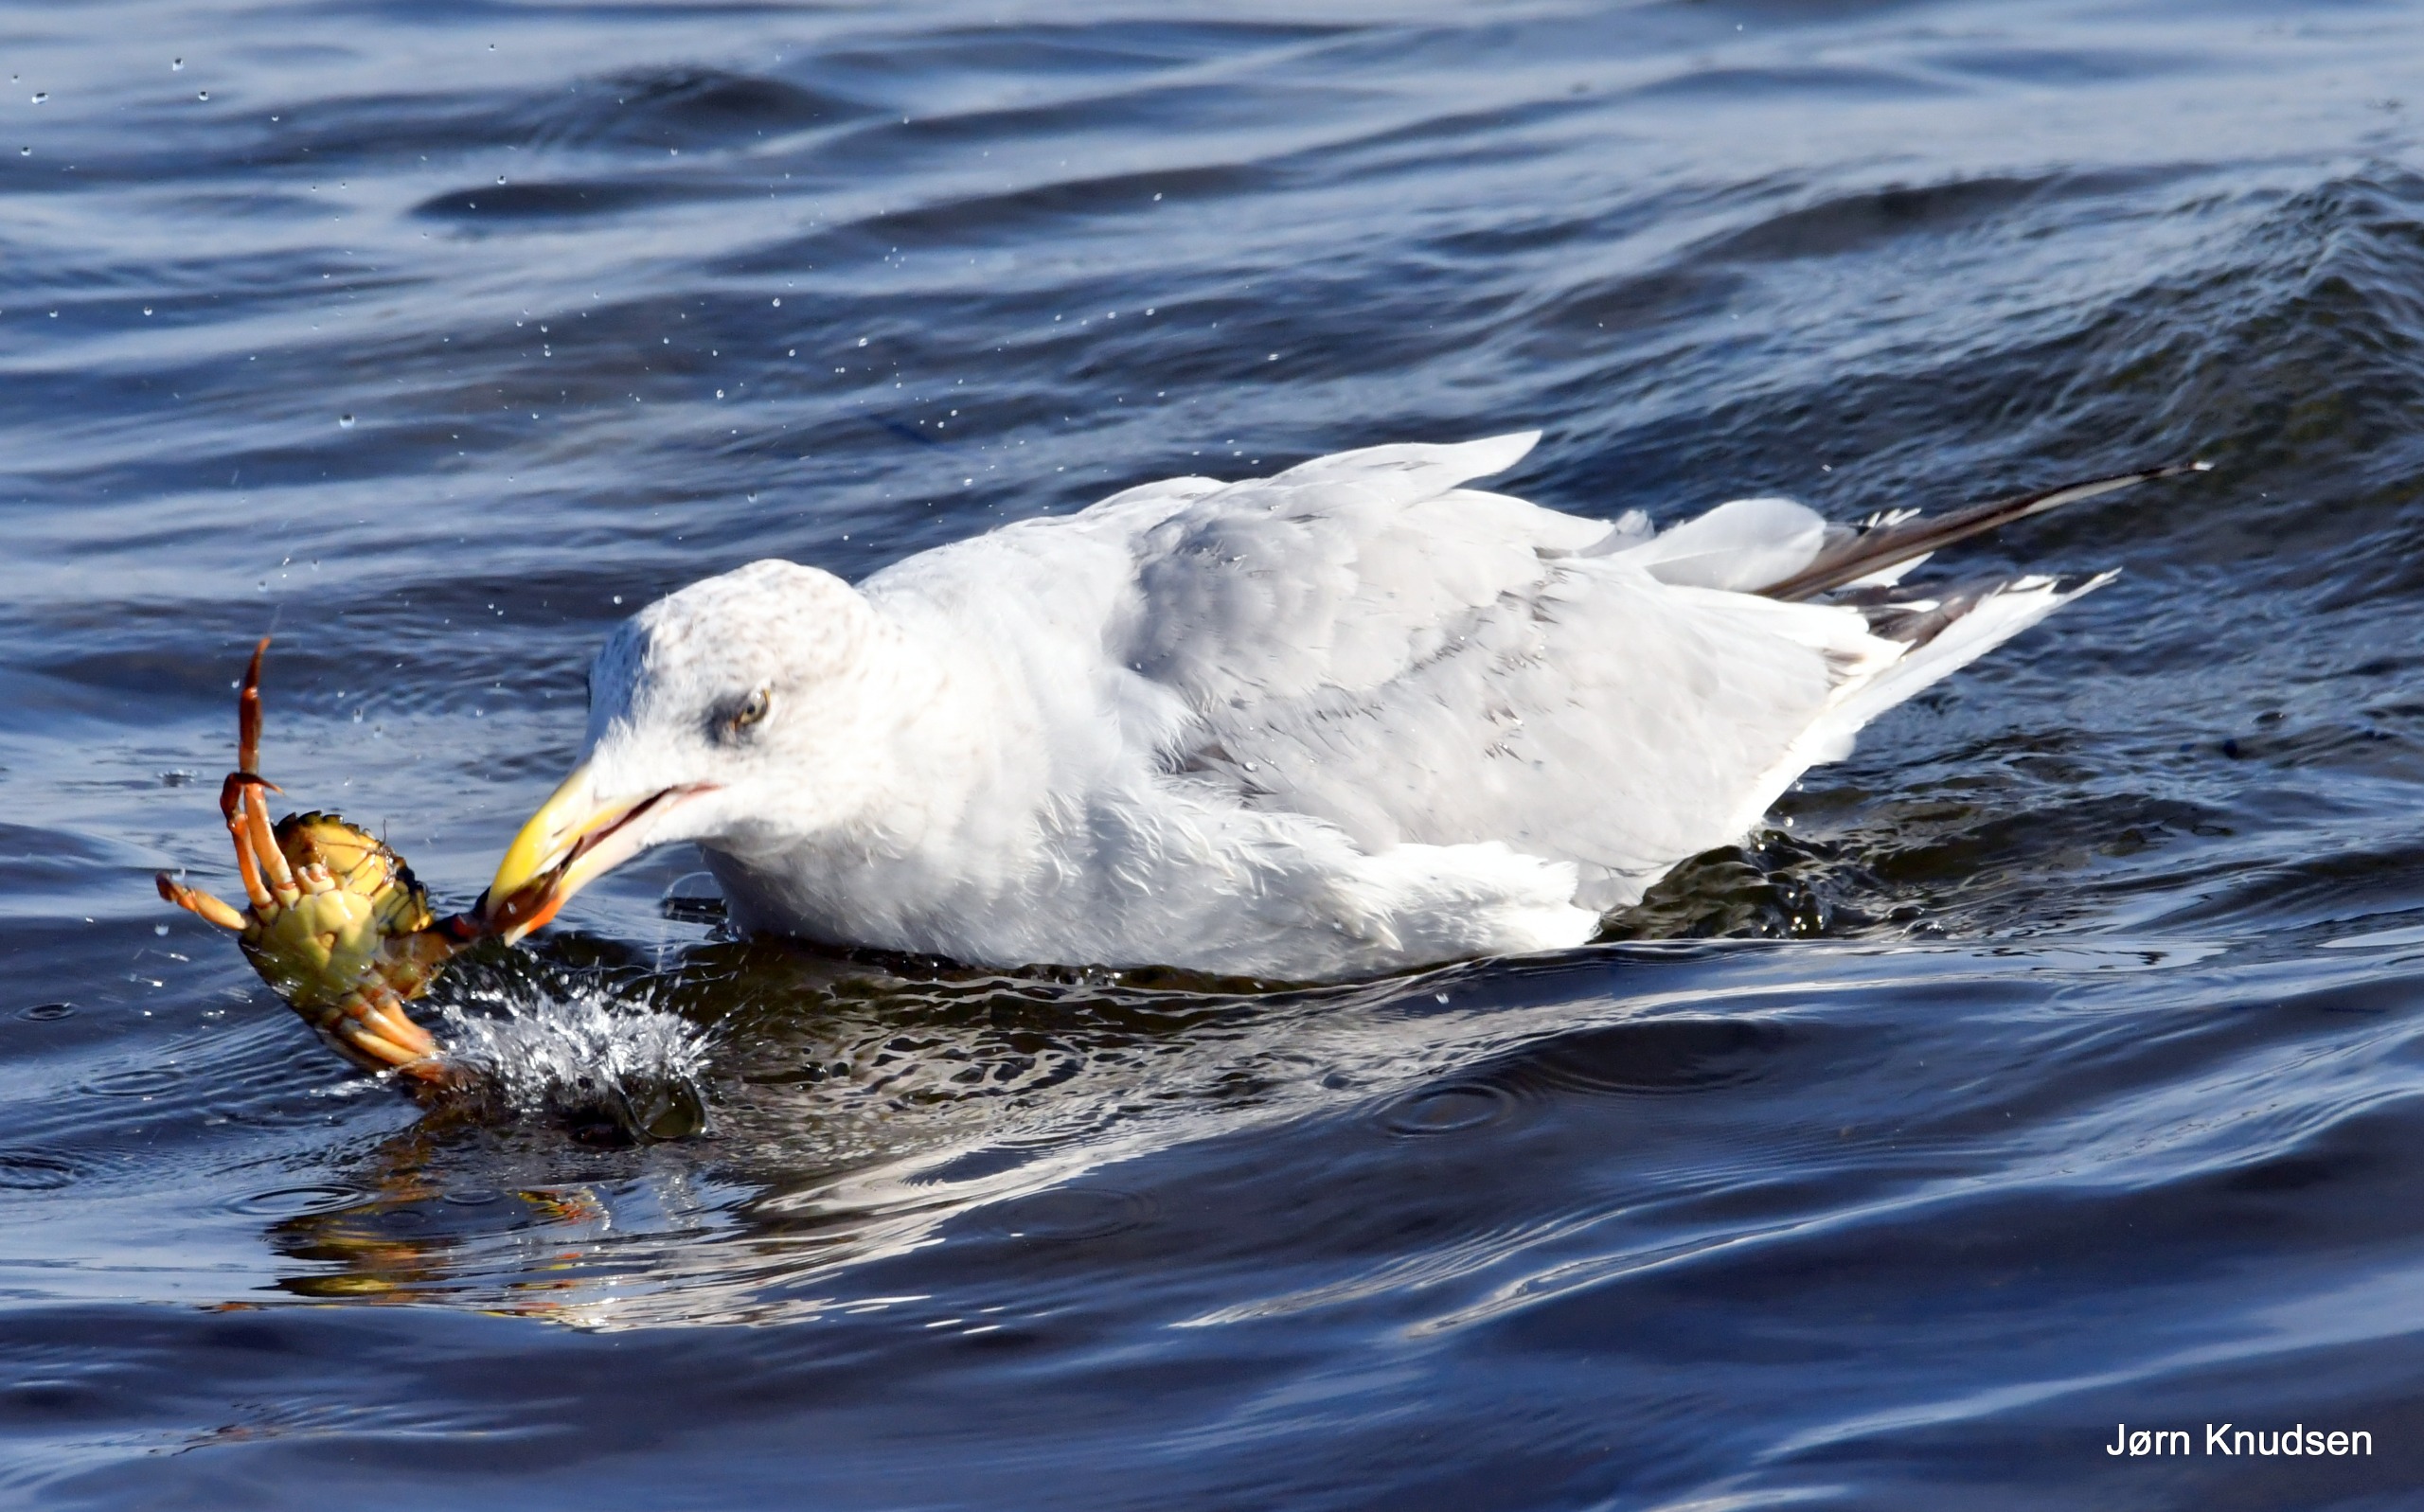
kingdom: Animalia
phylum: Chordata
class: Aves
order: Charadriiformes
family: Laridae
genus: Larus
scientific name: Larus argentatus
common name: Sølvmåge
